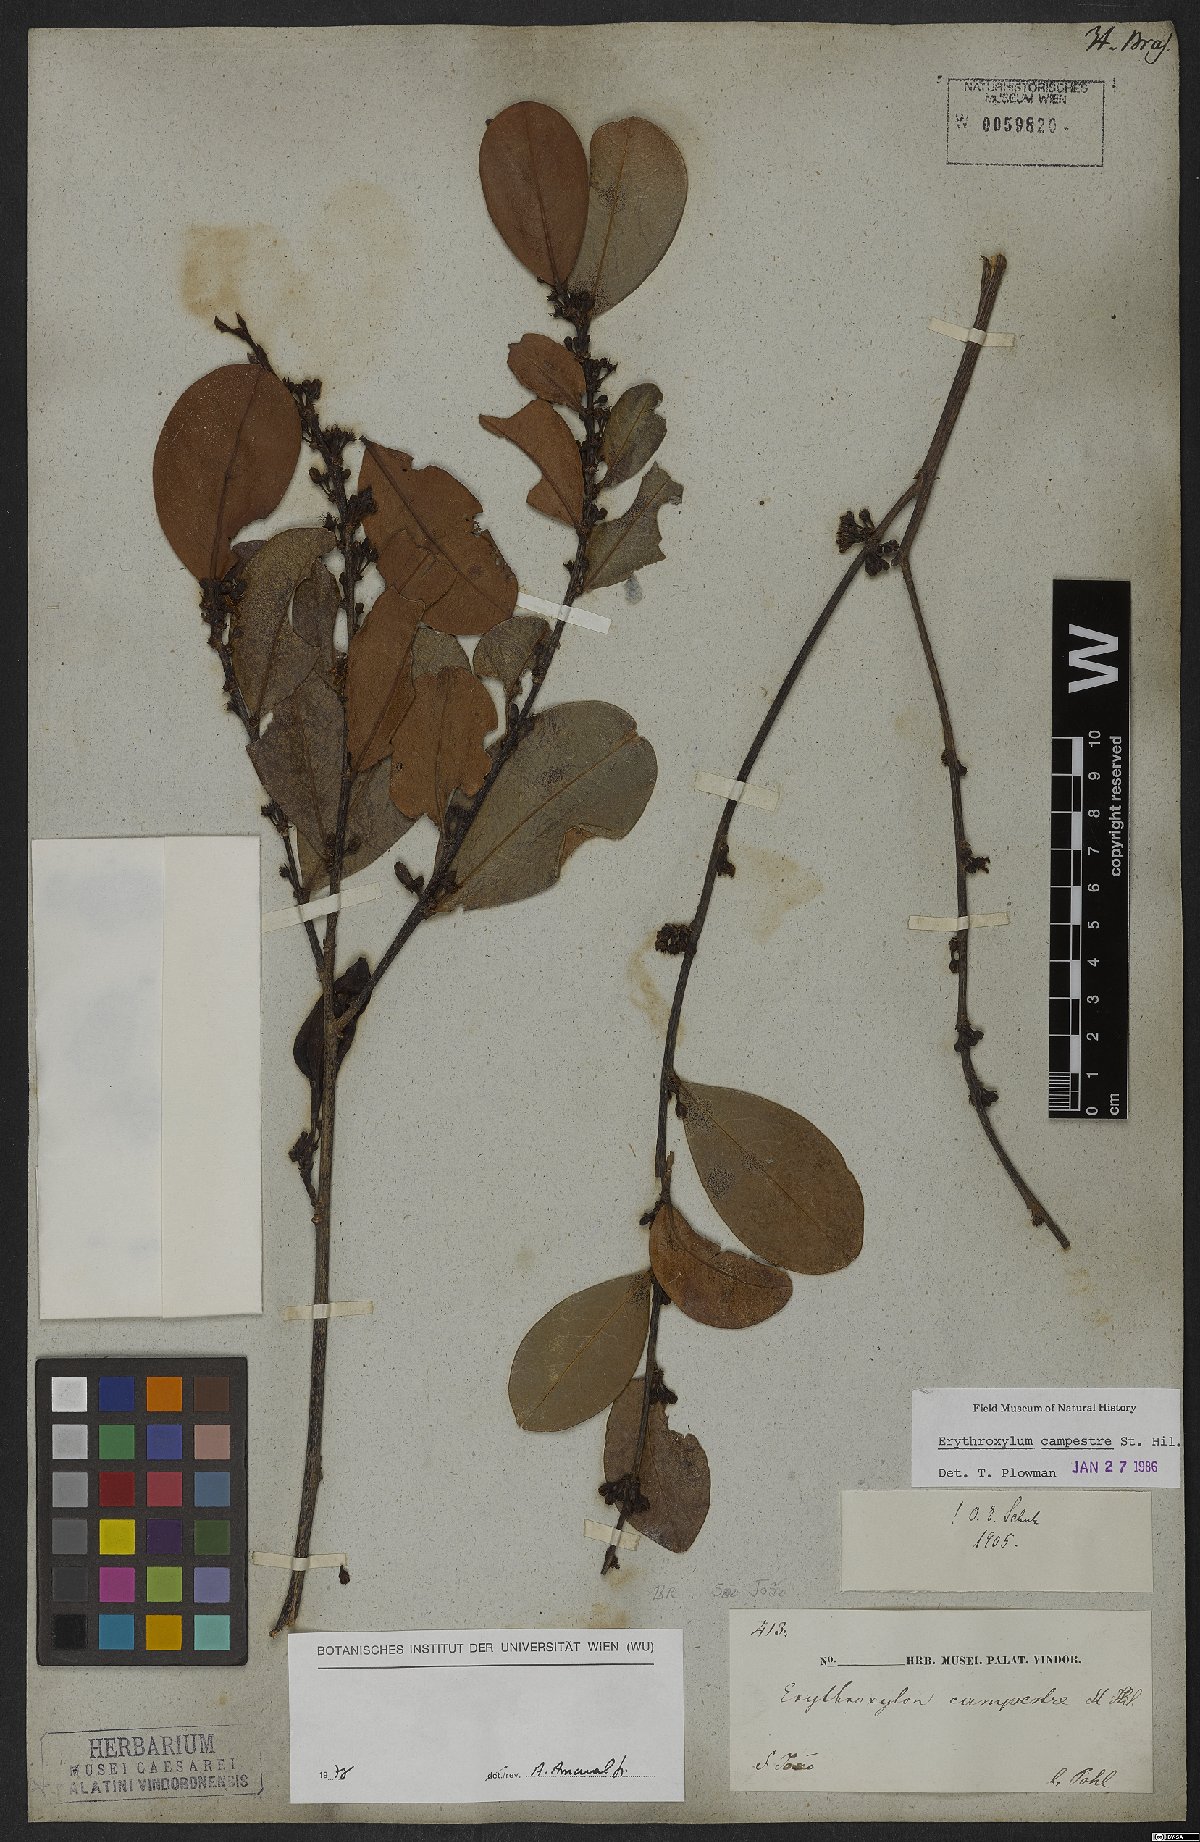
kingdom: Plantae
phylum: Tracheophyta
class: Magnoliopsida
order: Malpighiales
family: Erythroxylaceae
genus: Erythroxylum
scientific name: Erythroxylum campestre
